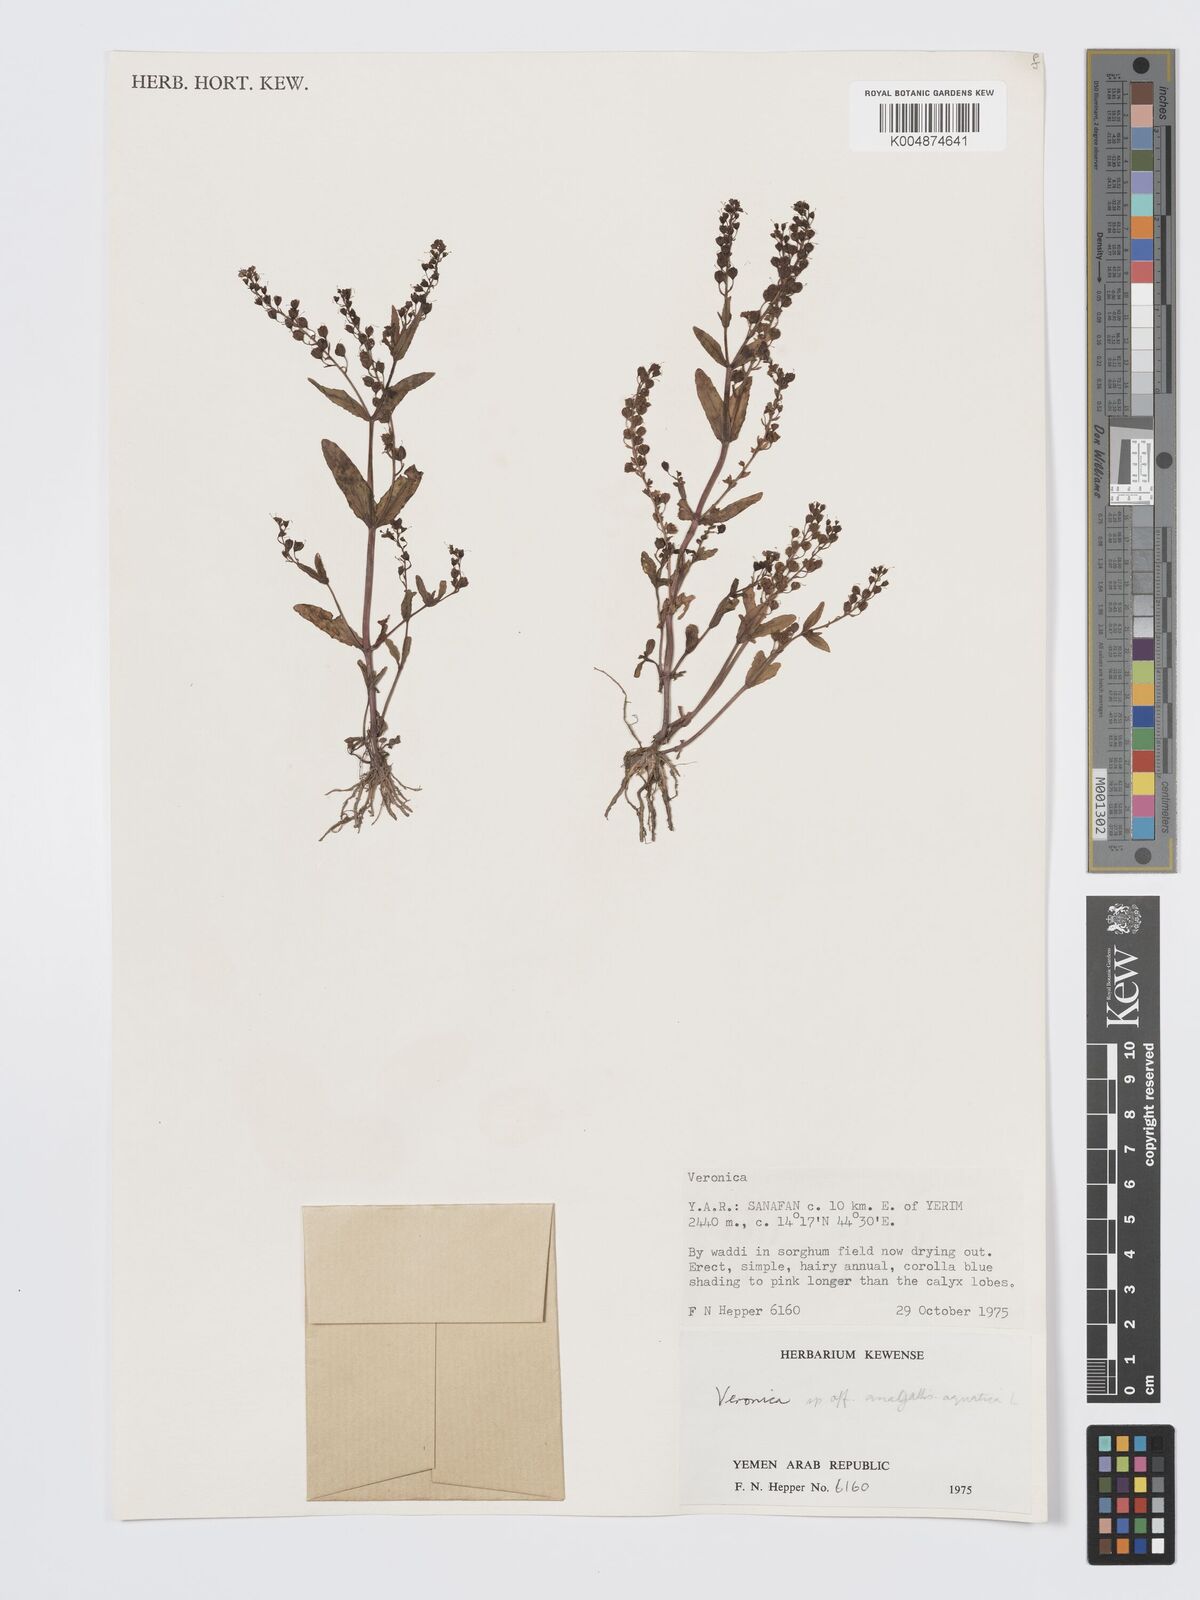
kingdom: Plantae
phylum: Tracheophyta
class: Magnoliopsida
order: Lamiales
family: Plantaginaceae
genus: Veronica
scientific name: Veronica
